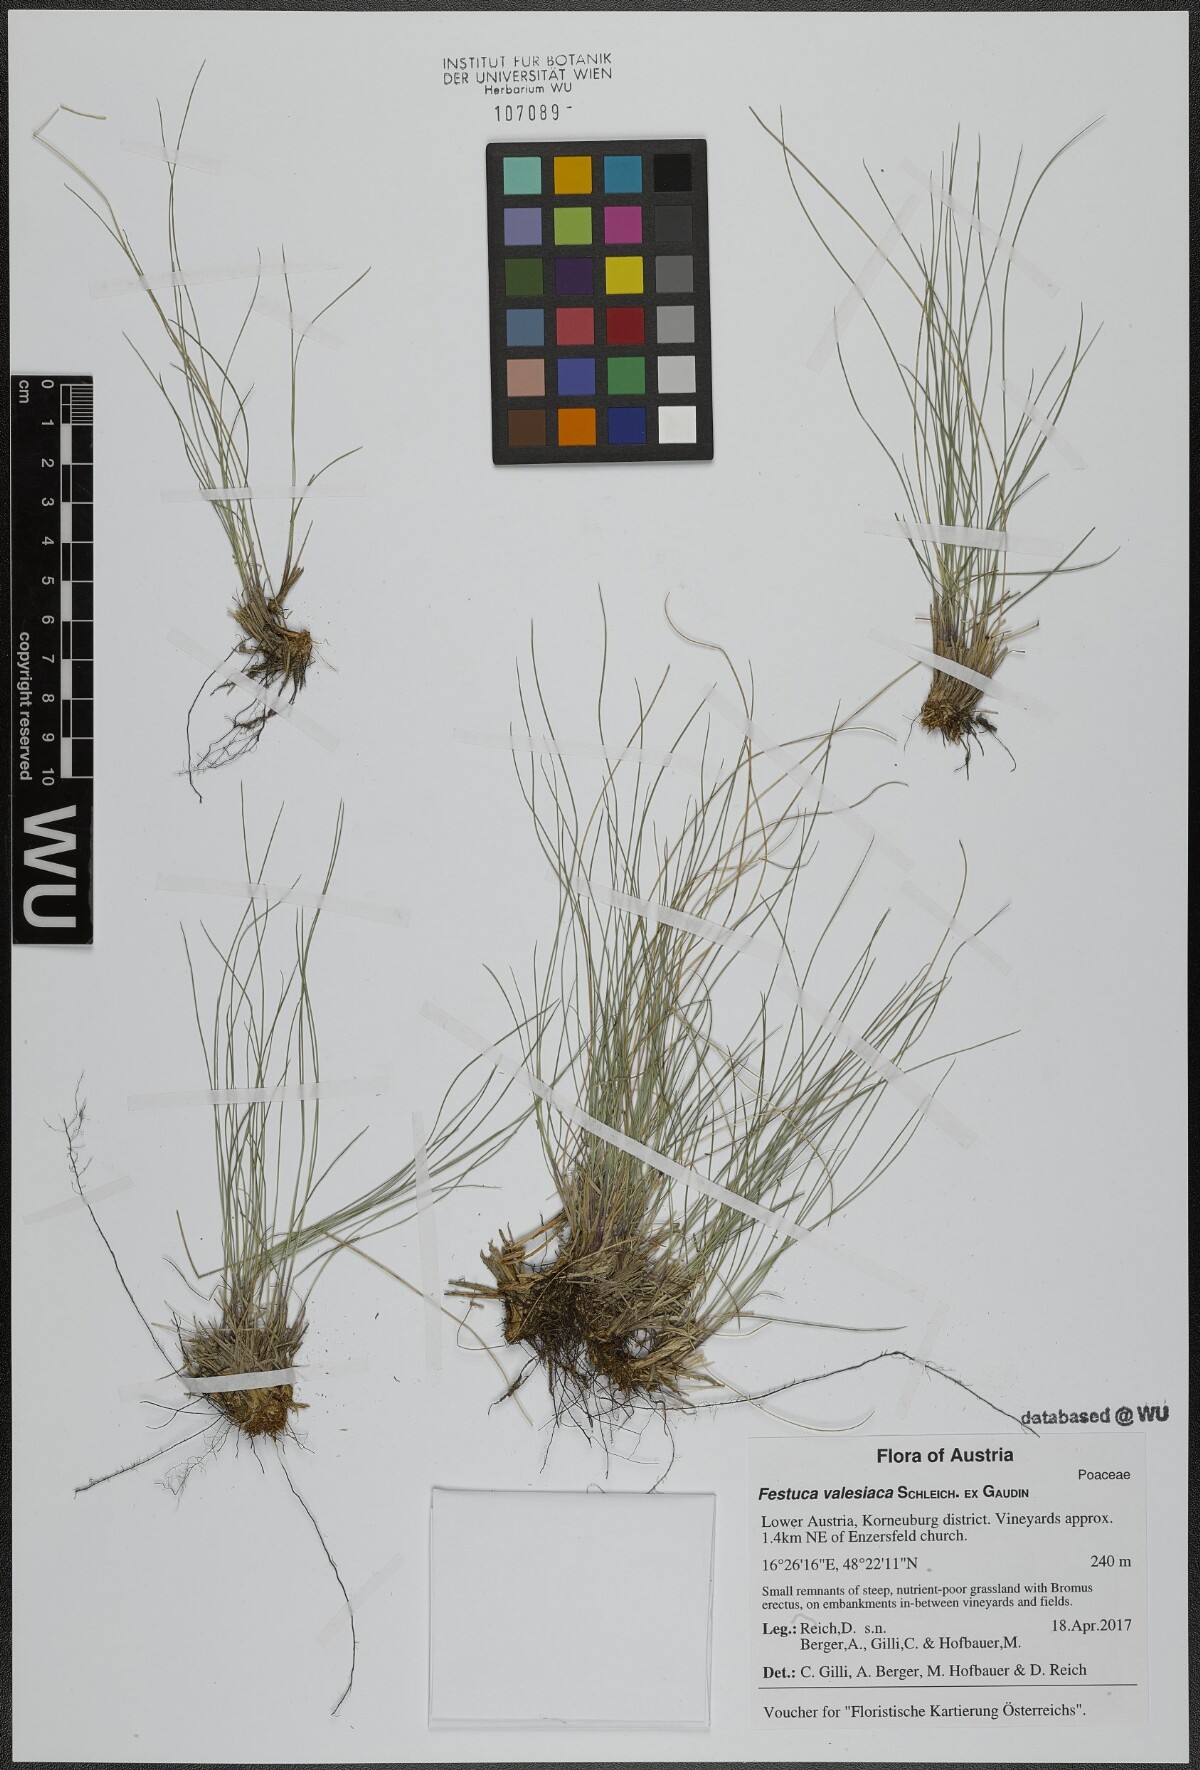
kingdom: Plantae
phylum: Tracheophyta
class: Liliopsida
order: Poales
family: Poaceae
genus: Festuca
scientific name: Festuca valesiaca
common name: Volga fescue
